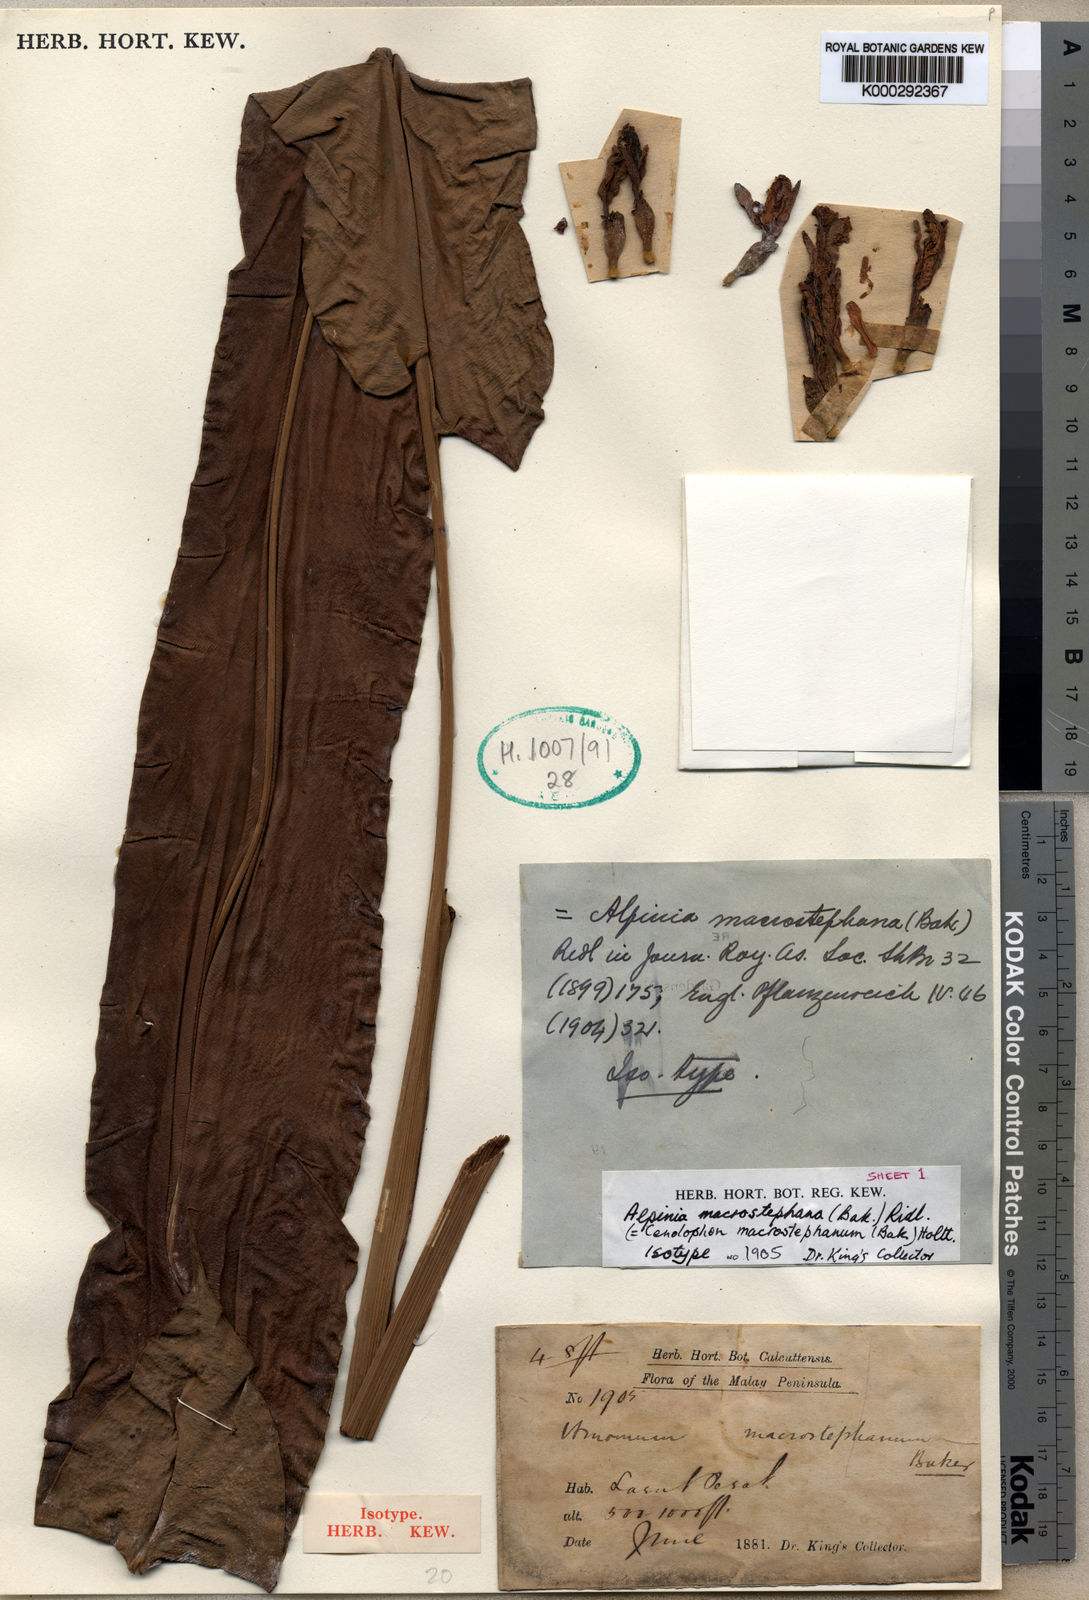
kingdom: Plantae
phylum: Tracheophyta
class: Liliopsida
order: Zingiberales
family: Zingiberaceae
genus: Alpinia
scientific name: Alpinia macrostephana
